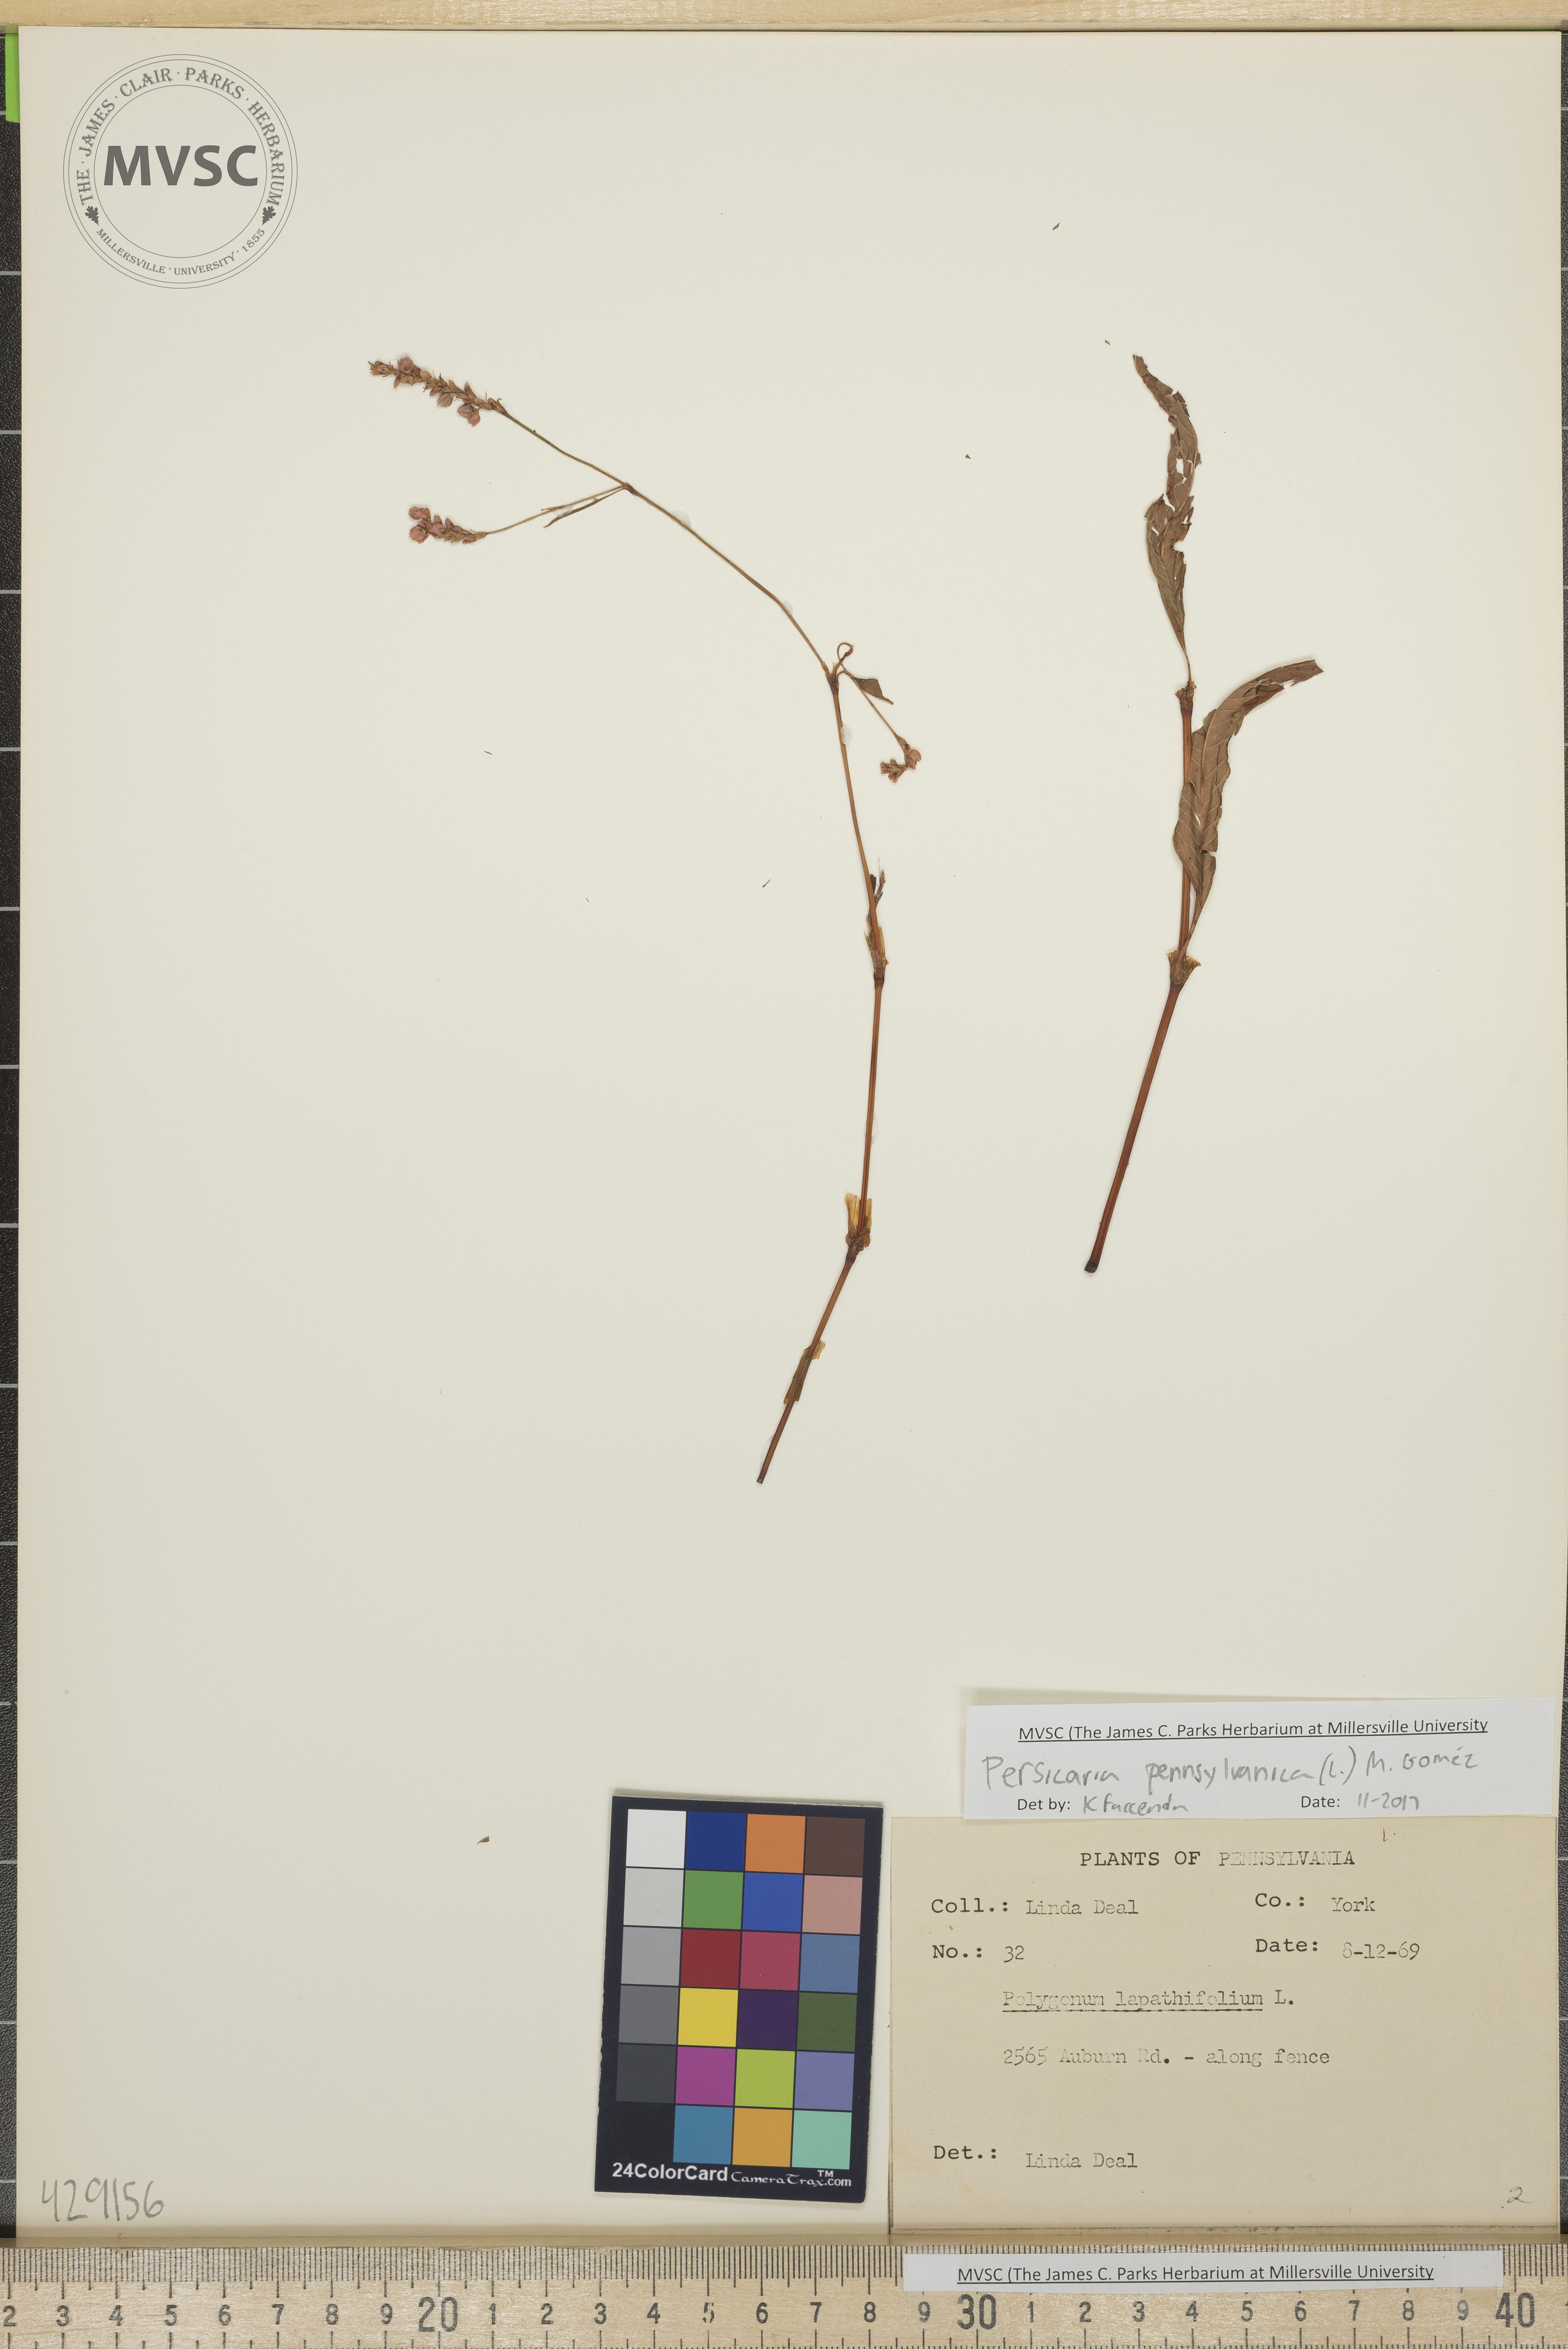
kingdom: Plantae
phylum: Tracheophyta
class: Magnoliopsida
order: Caryophyllales
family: Polygonaceae
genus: Persicaria
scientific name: Persicaria pensylvanica
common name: Pinkweed
